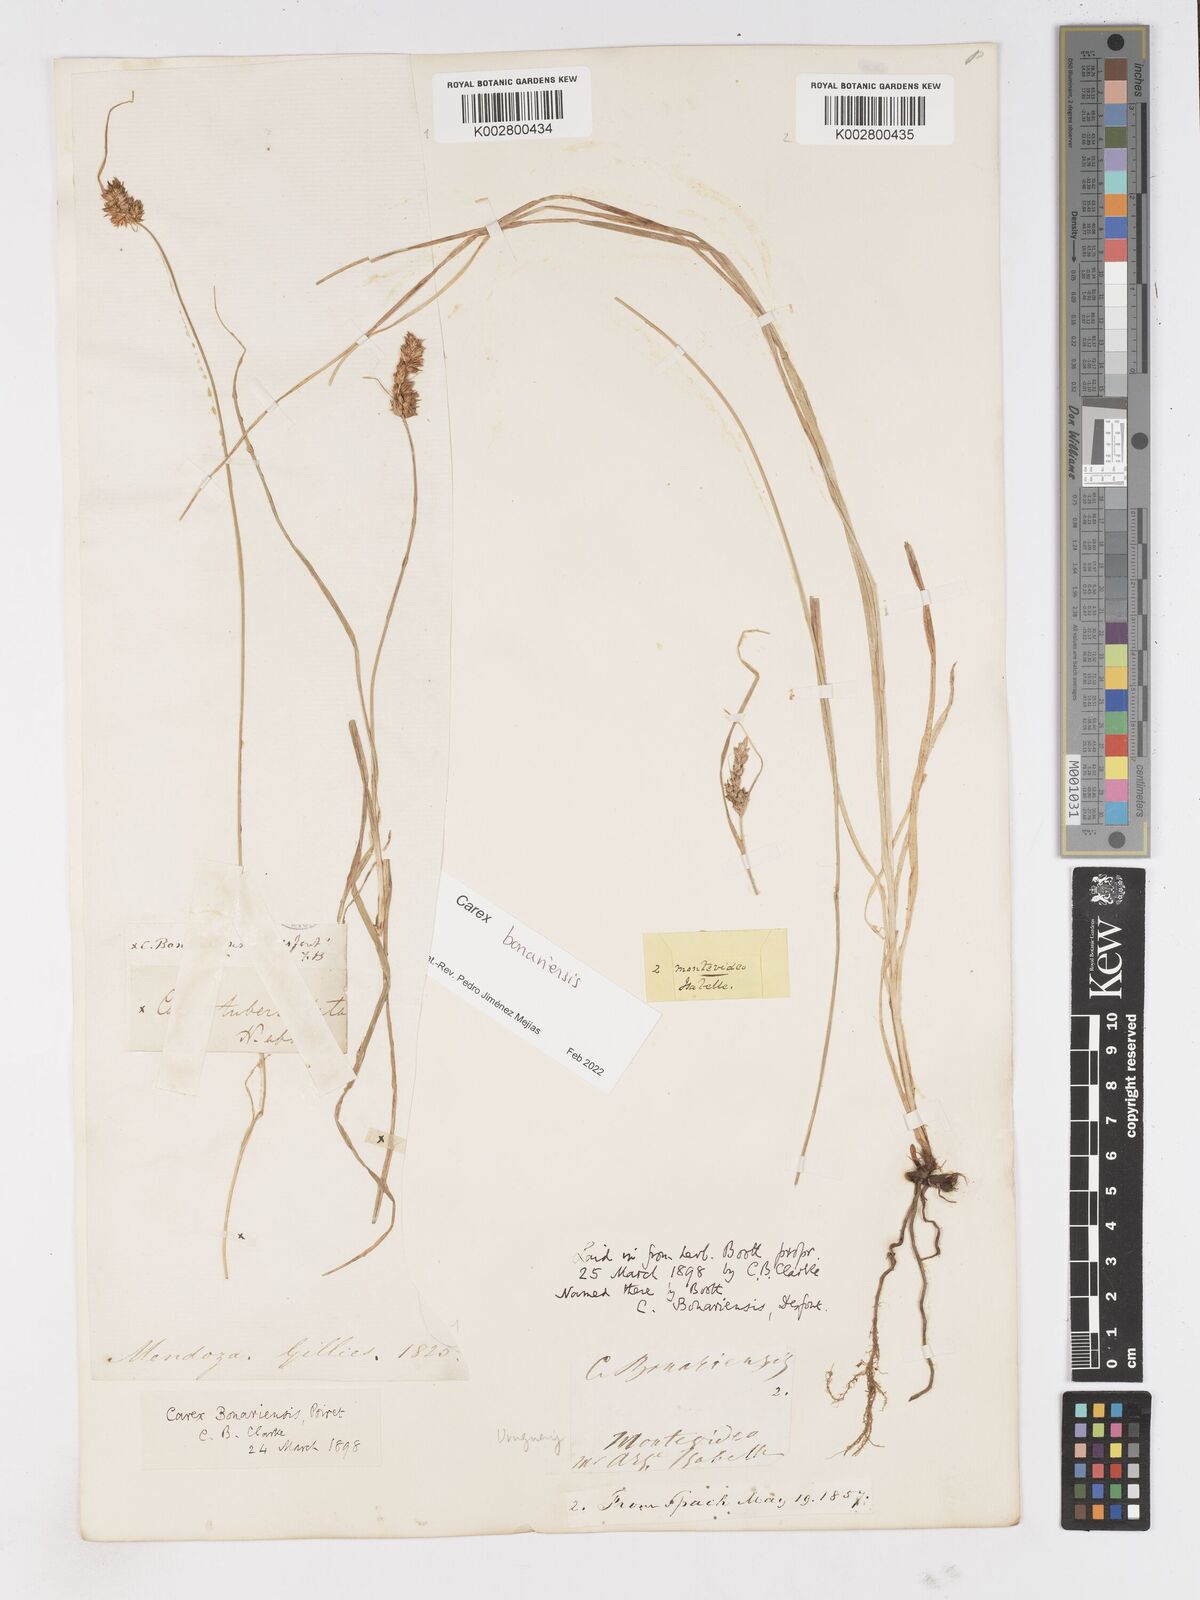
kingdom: Plantae
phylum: Tracheophyta
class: Liliopsida
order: Poales
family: Cyperaceae
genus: Carex
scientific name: Carex bonariensis
